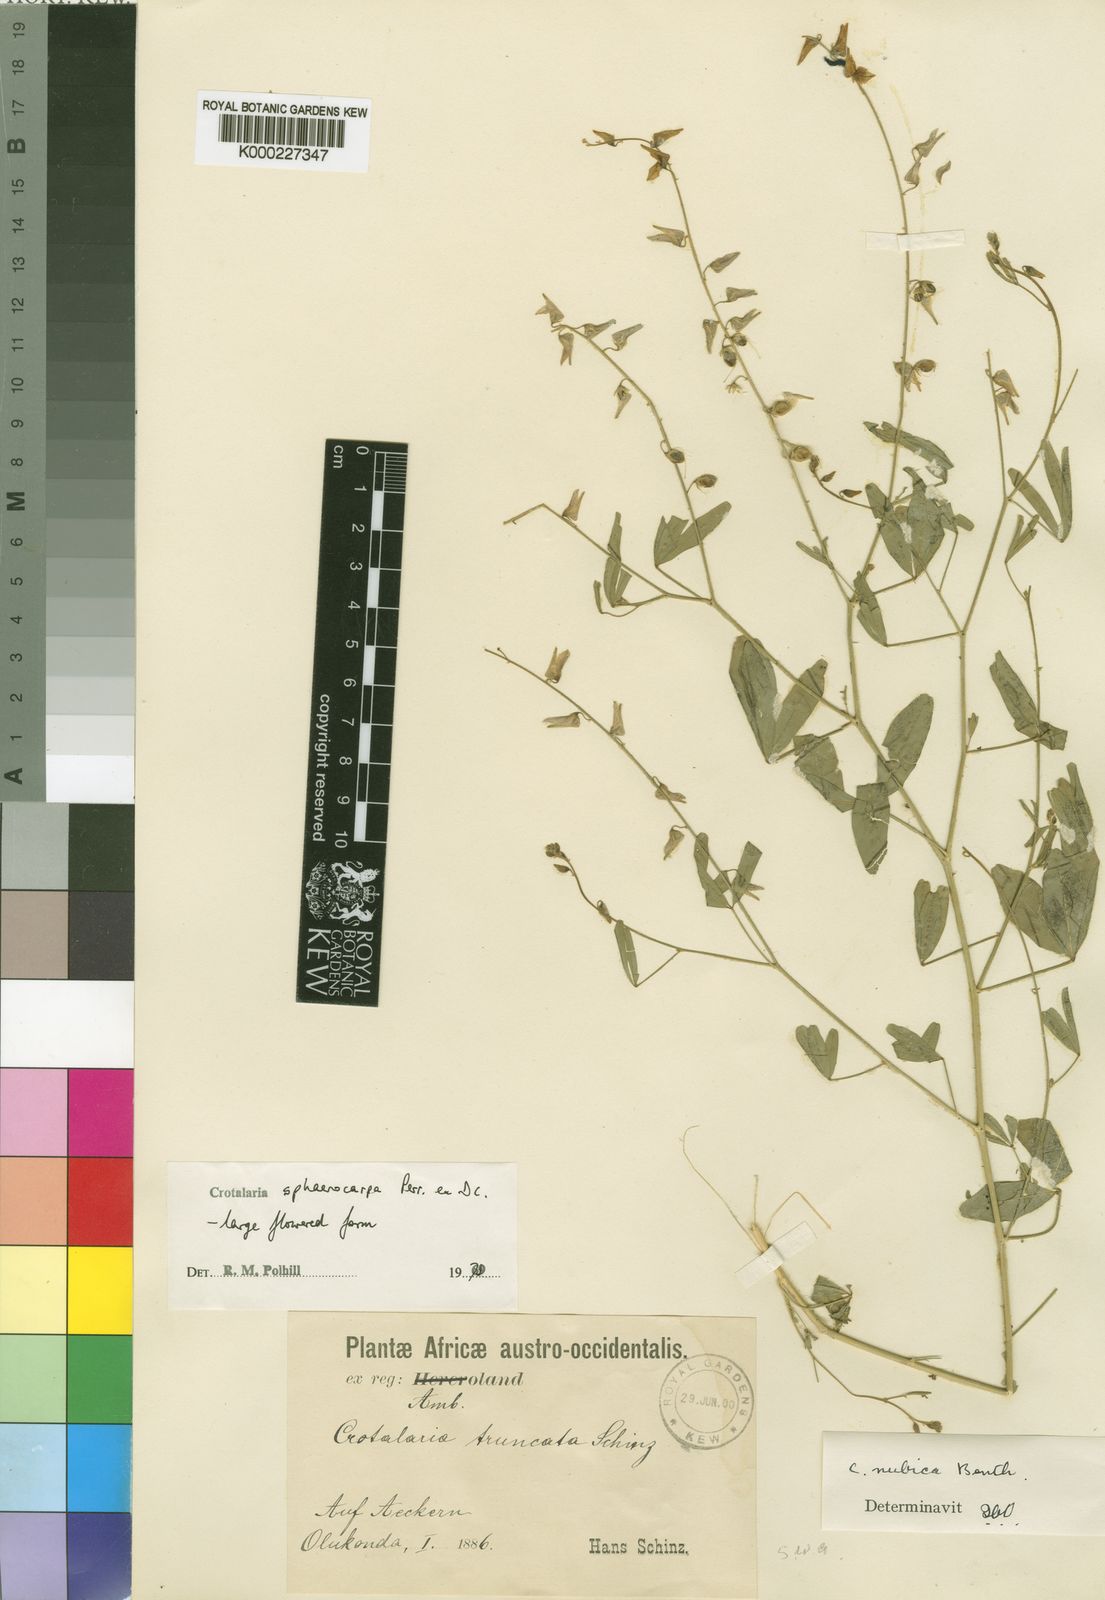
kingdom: Plantae
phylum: Tracheophyta
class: Magnoliopsida
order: Fabales
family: Fabaceae
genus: Crotalaria
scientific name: Crotalaria sphaerocarpa
